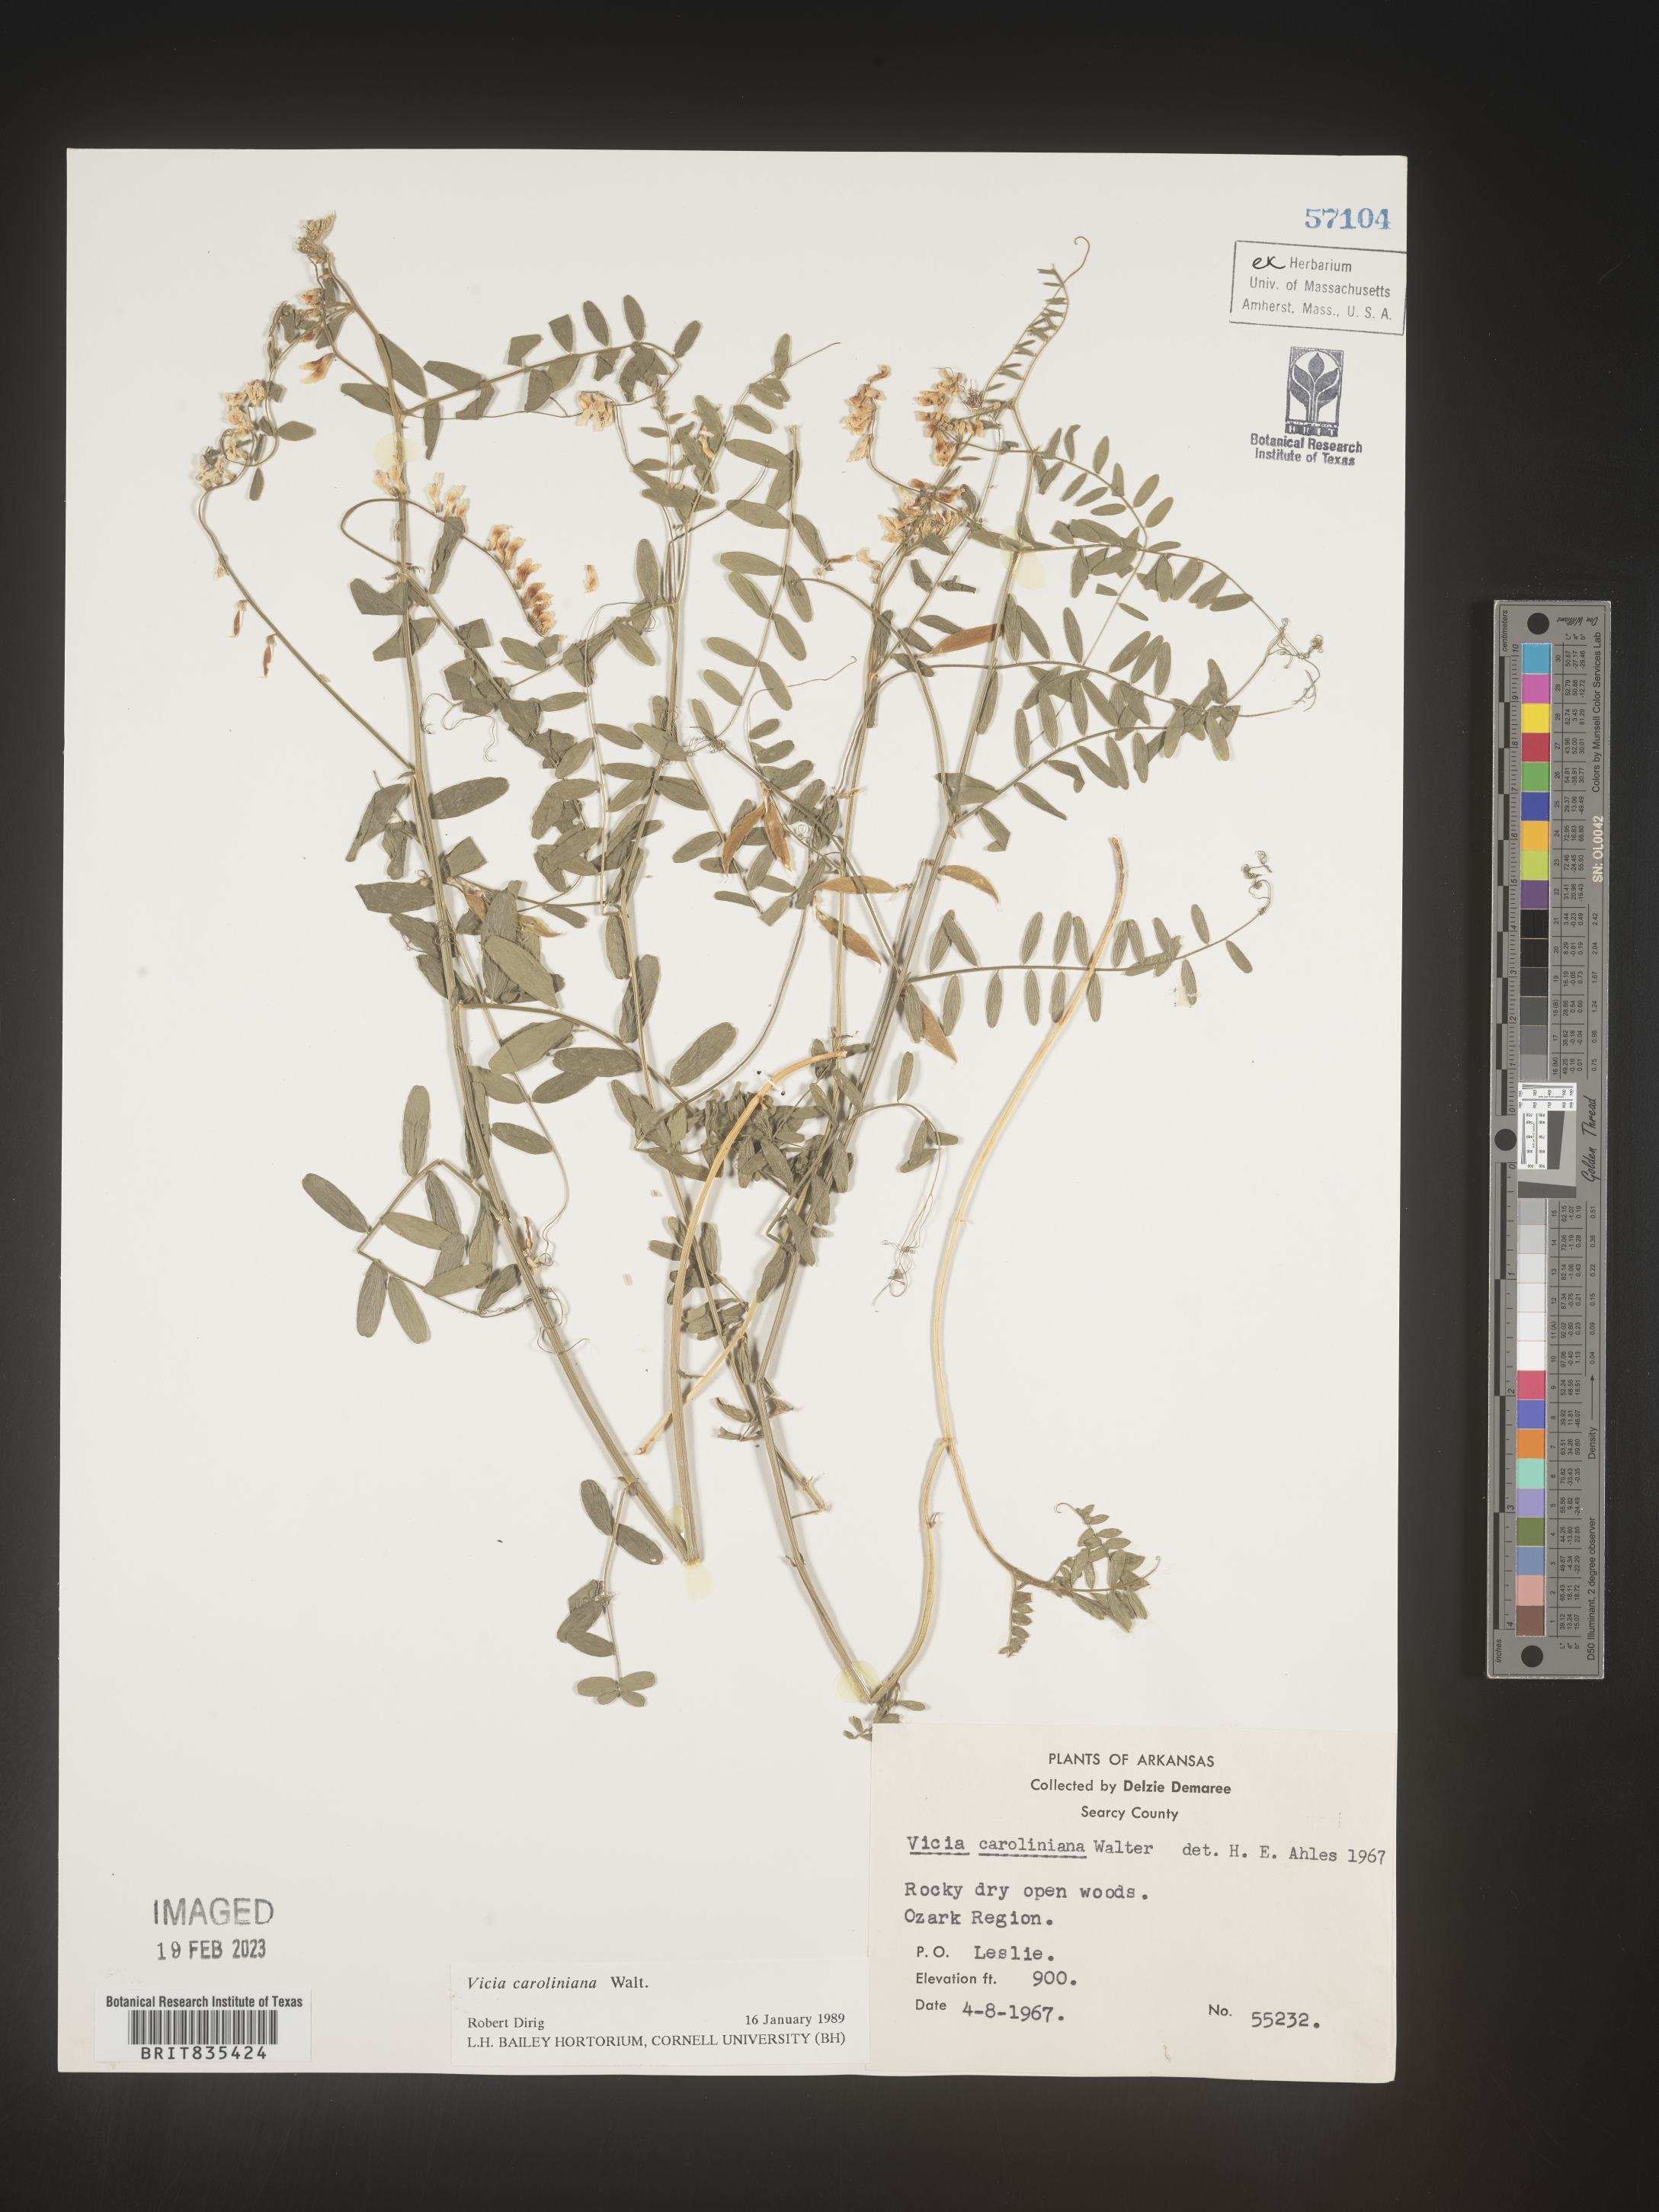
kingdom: Plantae
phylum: Tracheophyta
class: Magnoliopsida
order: Fabales
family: Fabaceae
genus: Vicia
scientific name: Vicia caroliniana
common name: Carolina vetch
